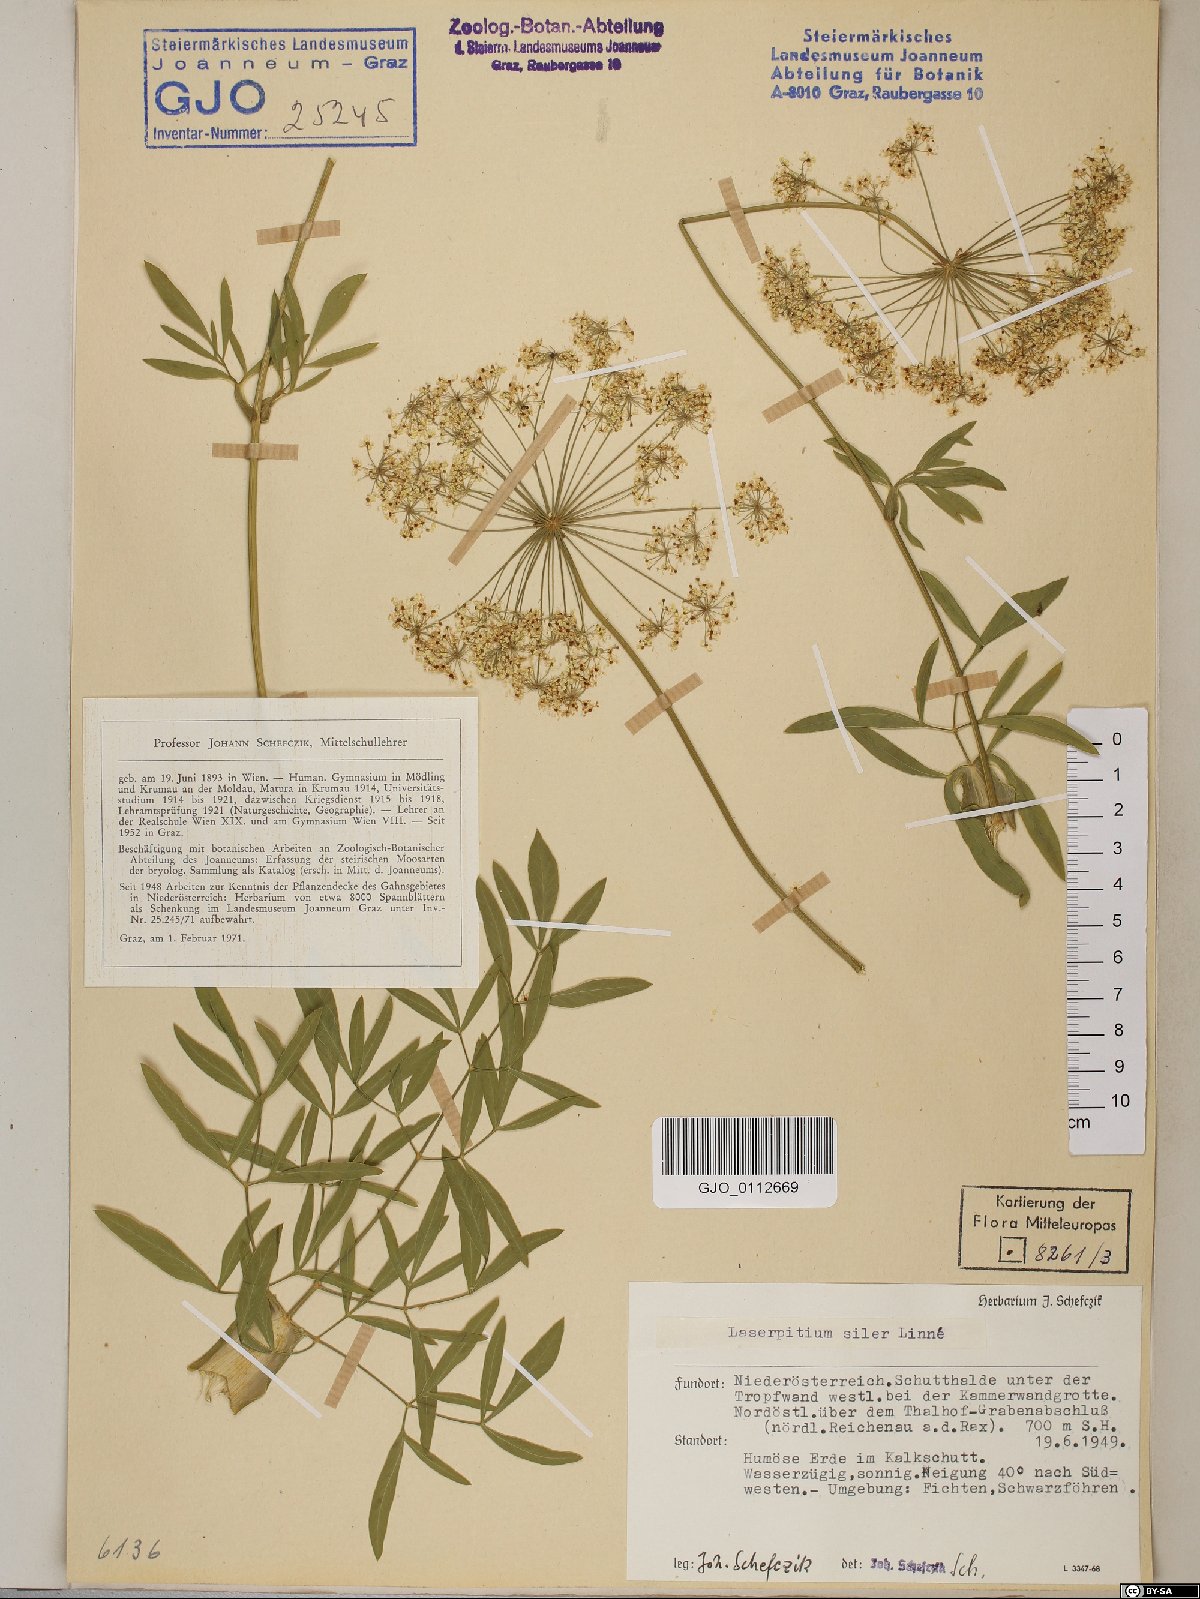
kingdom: Plantae
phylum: Tracheophyta
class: Magnoliopsida
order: Apiales
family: Apiaceae
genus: Siler
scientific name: Siler montanum
